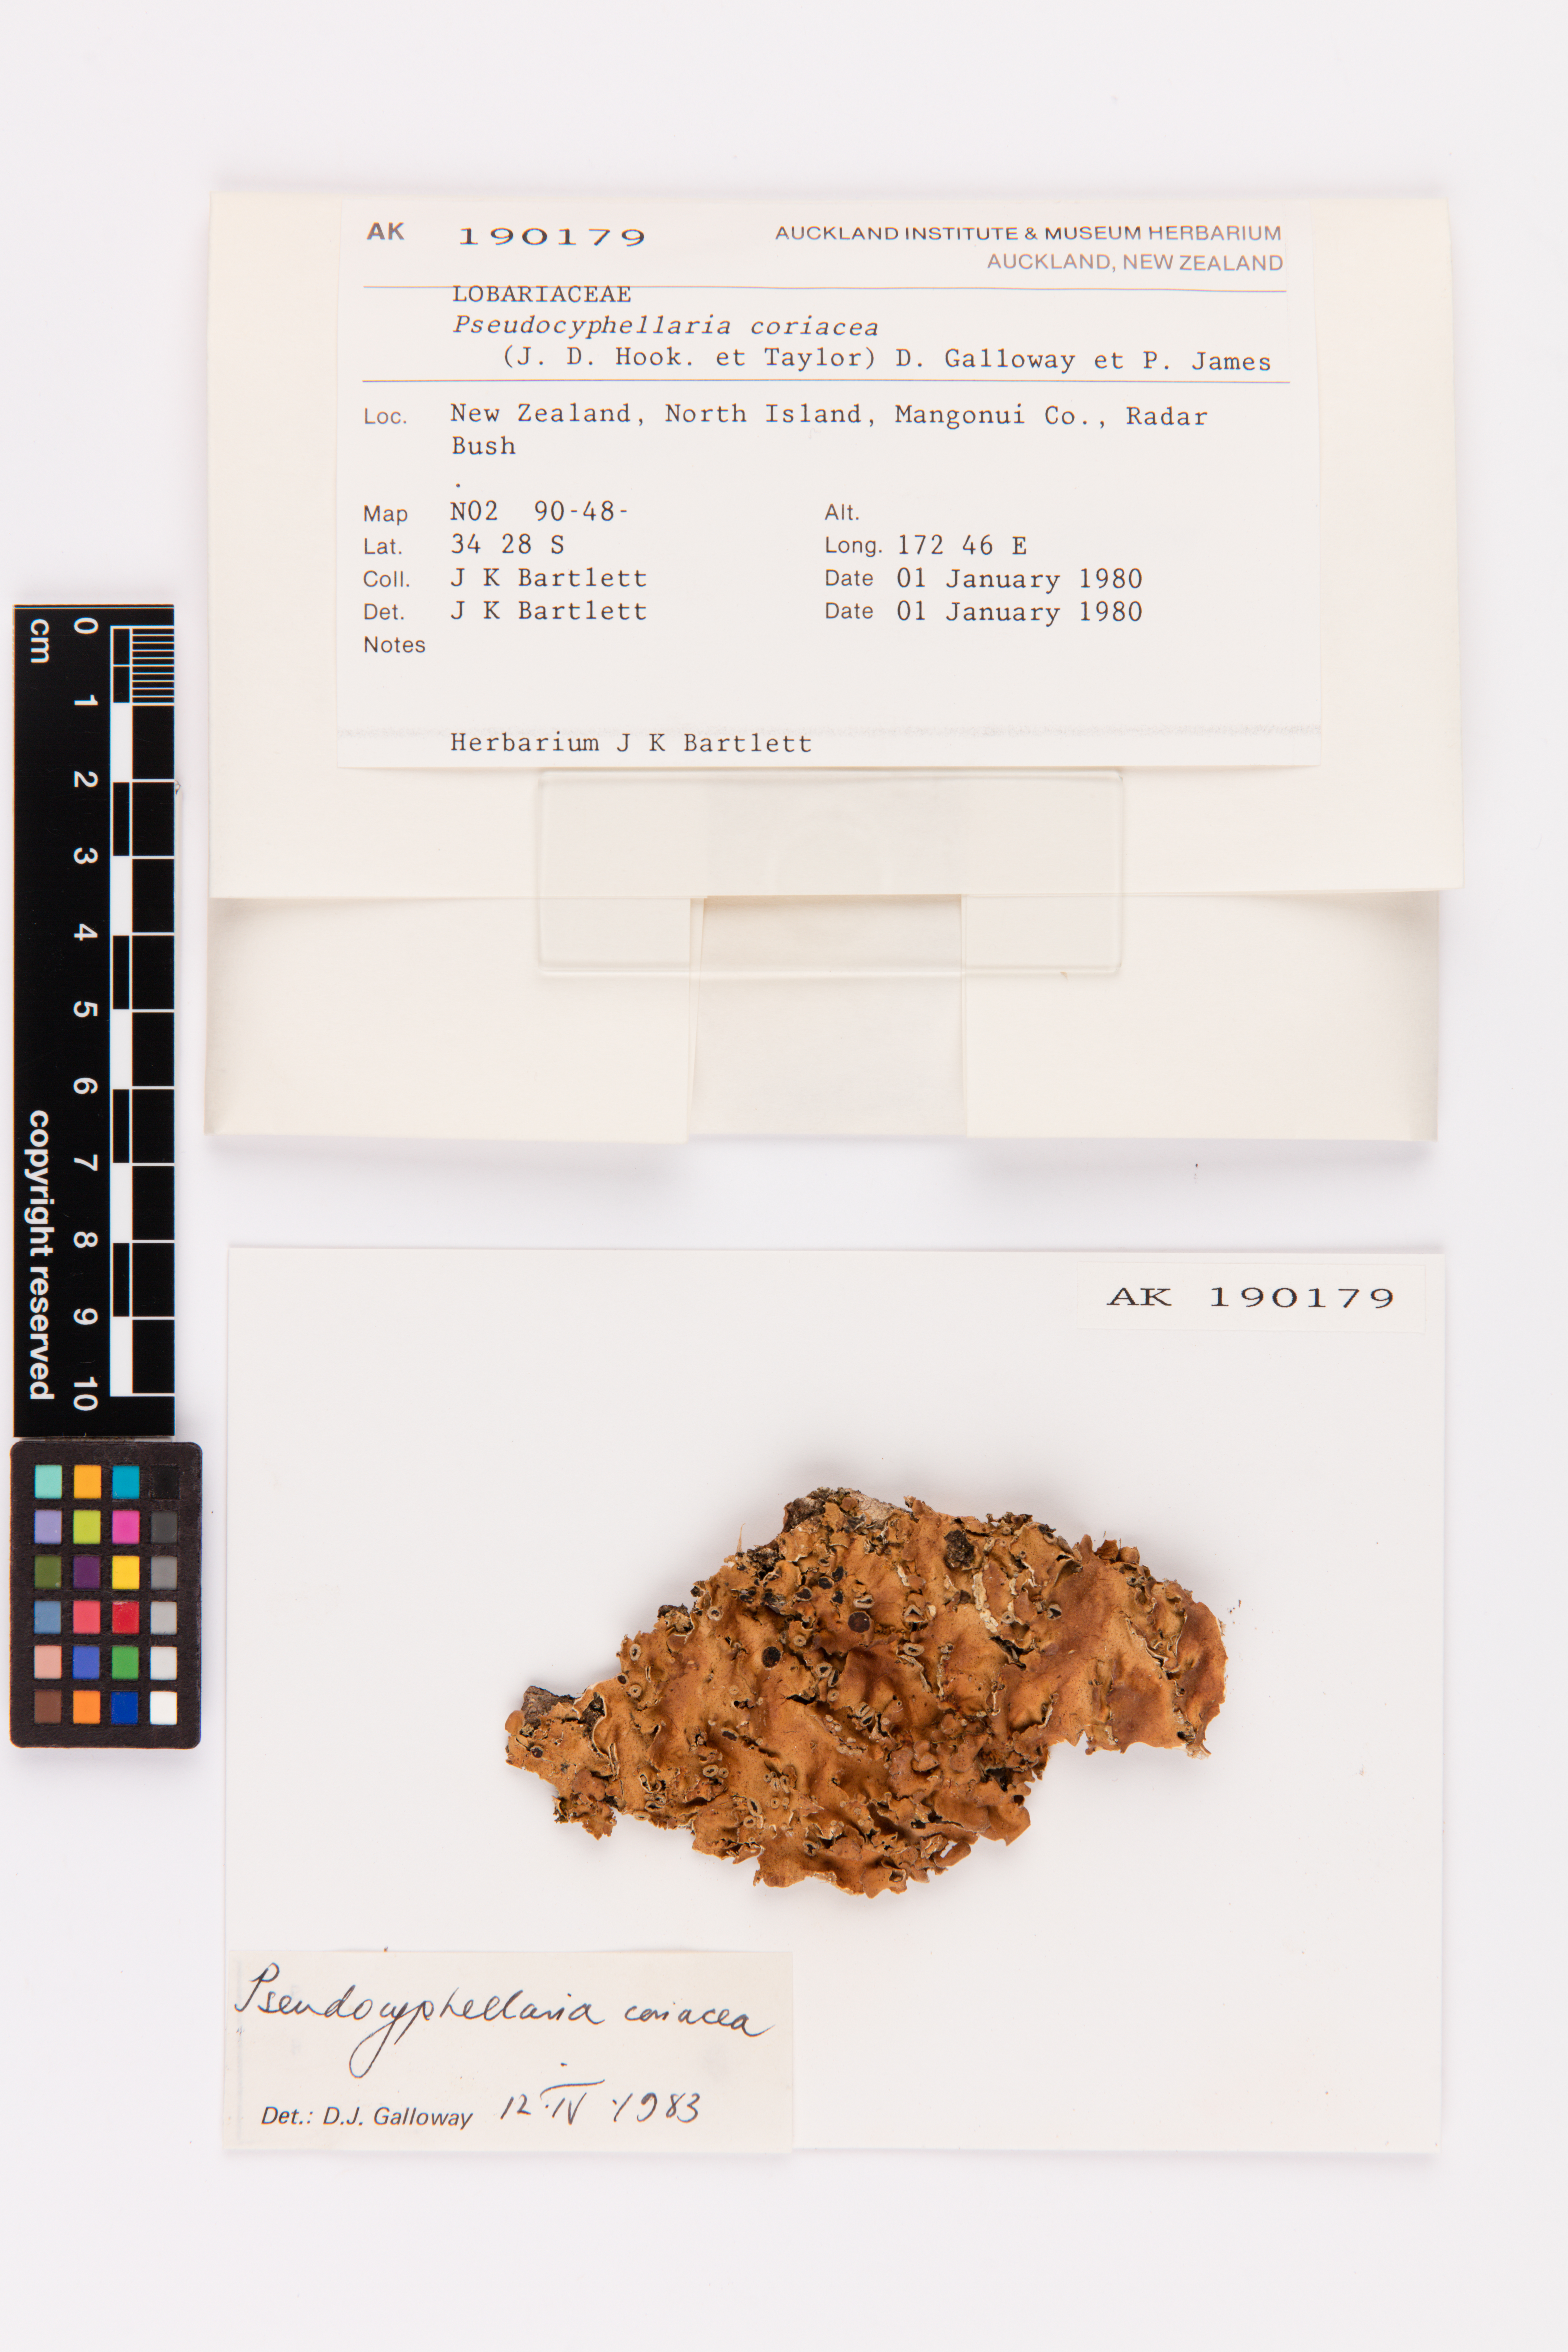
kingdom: Fungi
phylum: Ascomycota
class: Lecanoromycetes
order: Peltigerales
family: Lobariaceae
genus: Pseudocyphellaria
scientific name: Pseudocyphellaria coriacea
